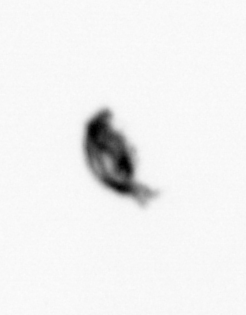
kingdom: Animalia
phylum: Arthropoda
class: Copepoda
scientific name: Copepoda
